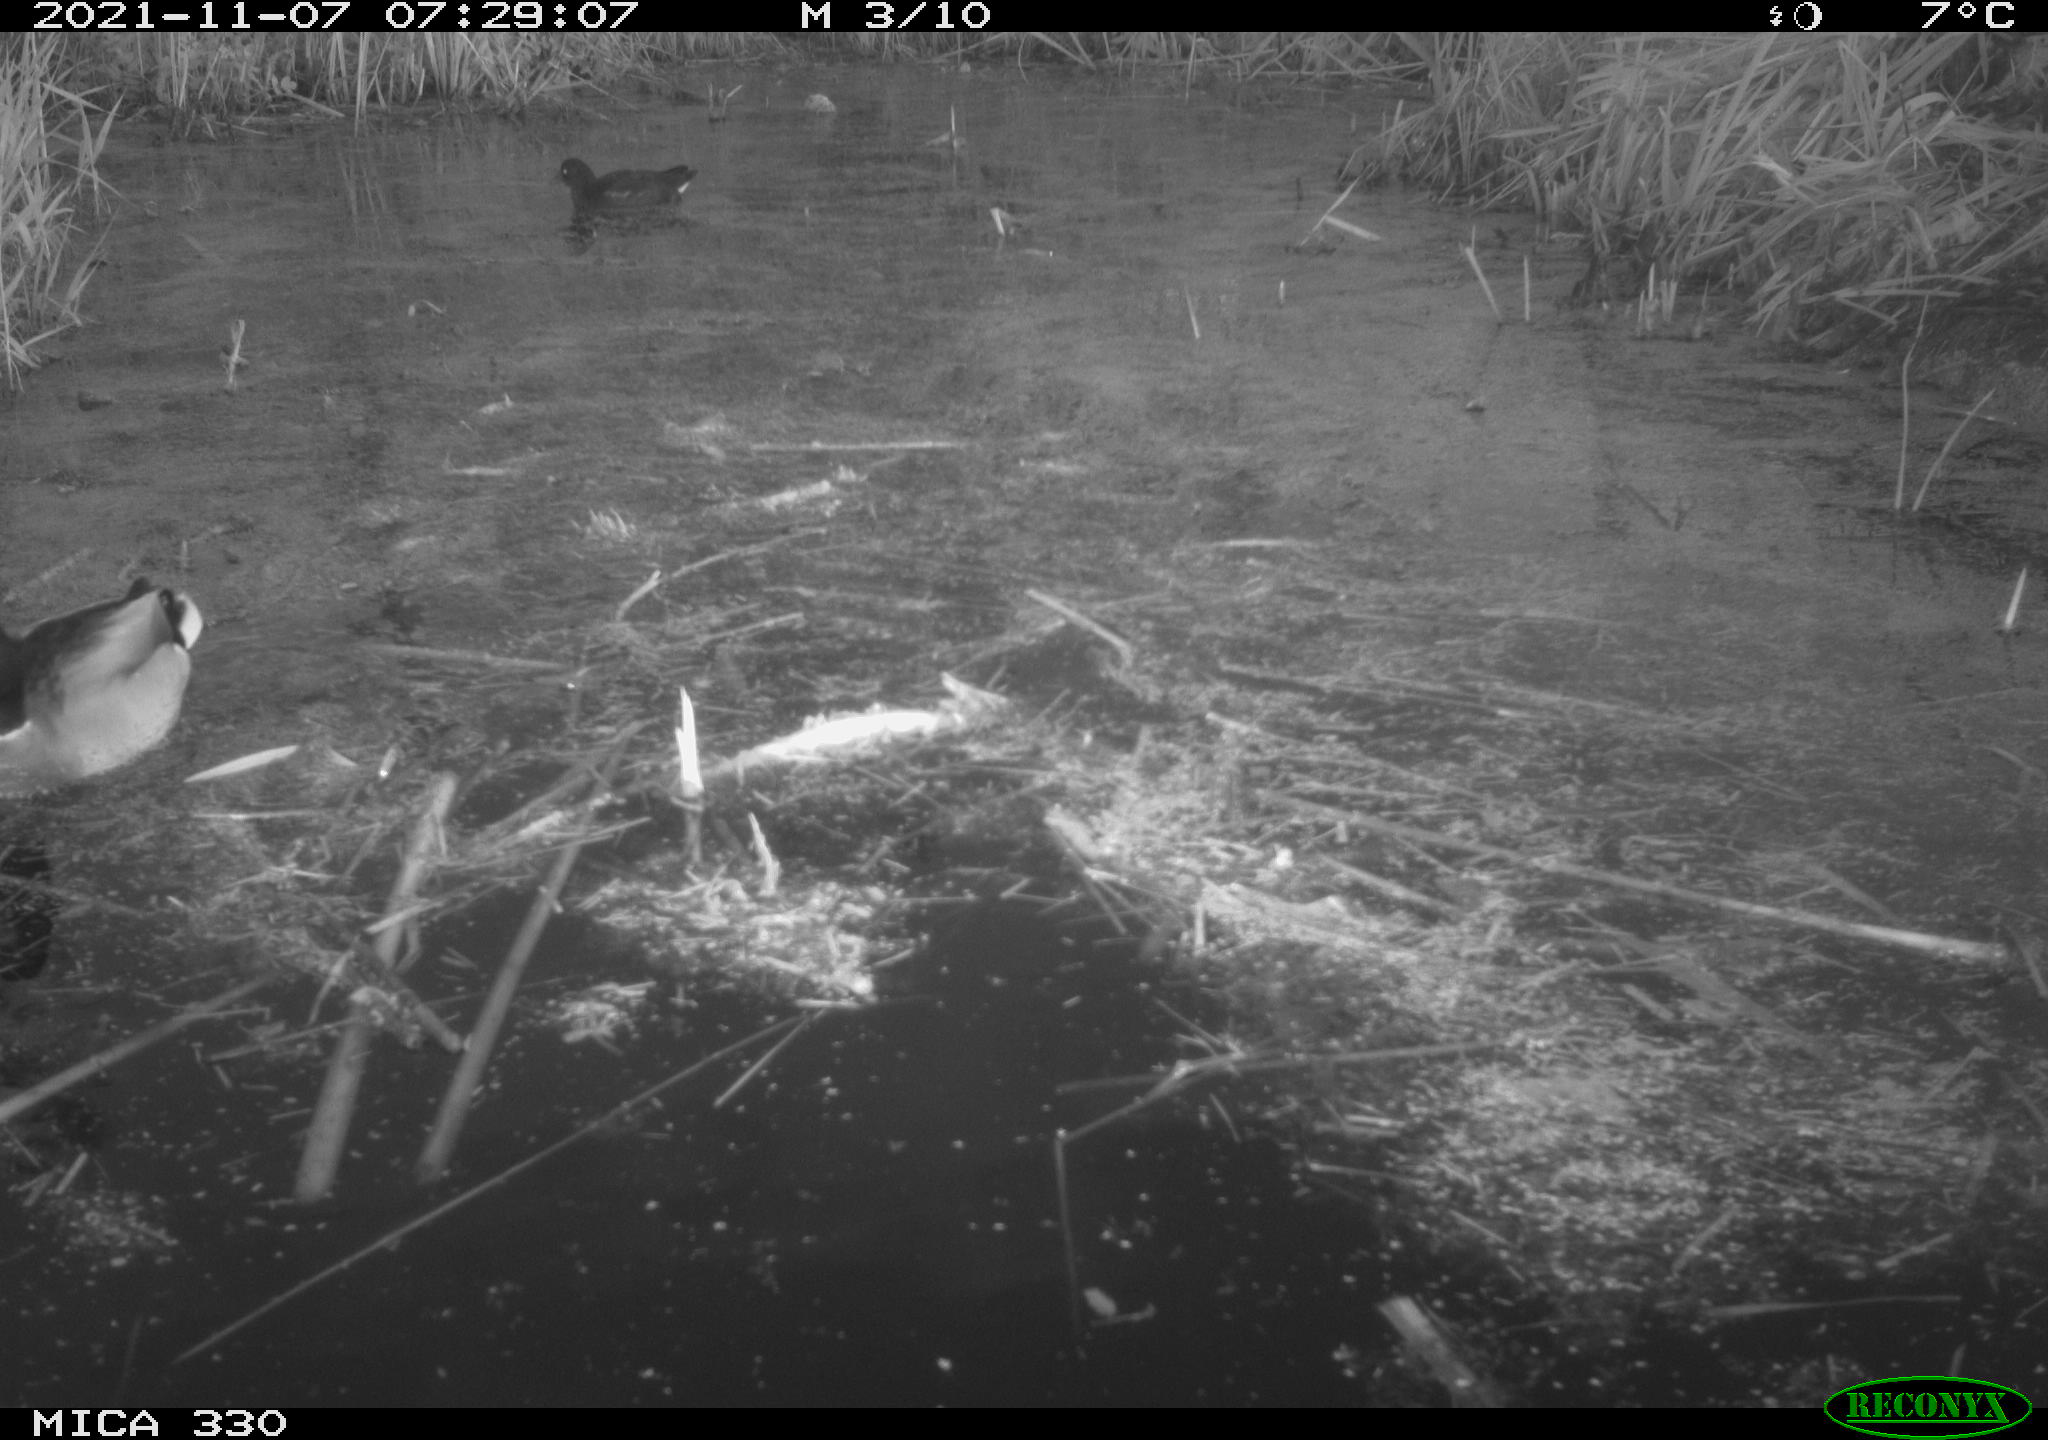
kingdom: Animalia
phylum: Chordata
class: Aves
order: Anseriformes
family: Anatidae
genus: Anas
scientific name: Anas platyrhynchos
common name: Mallard
